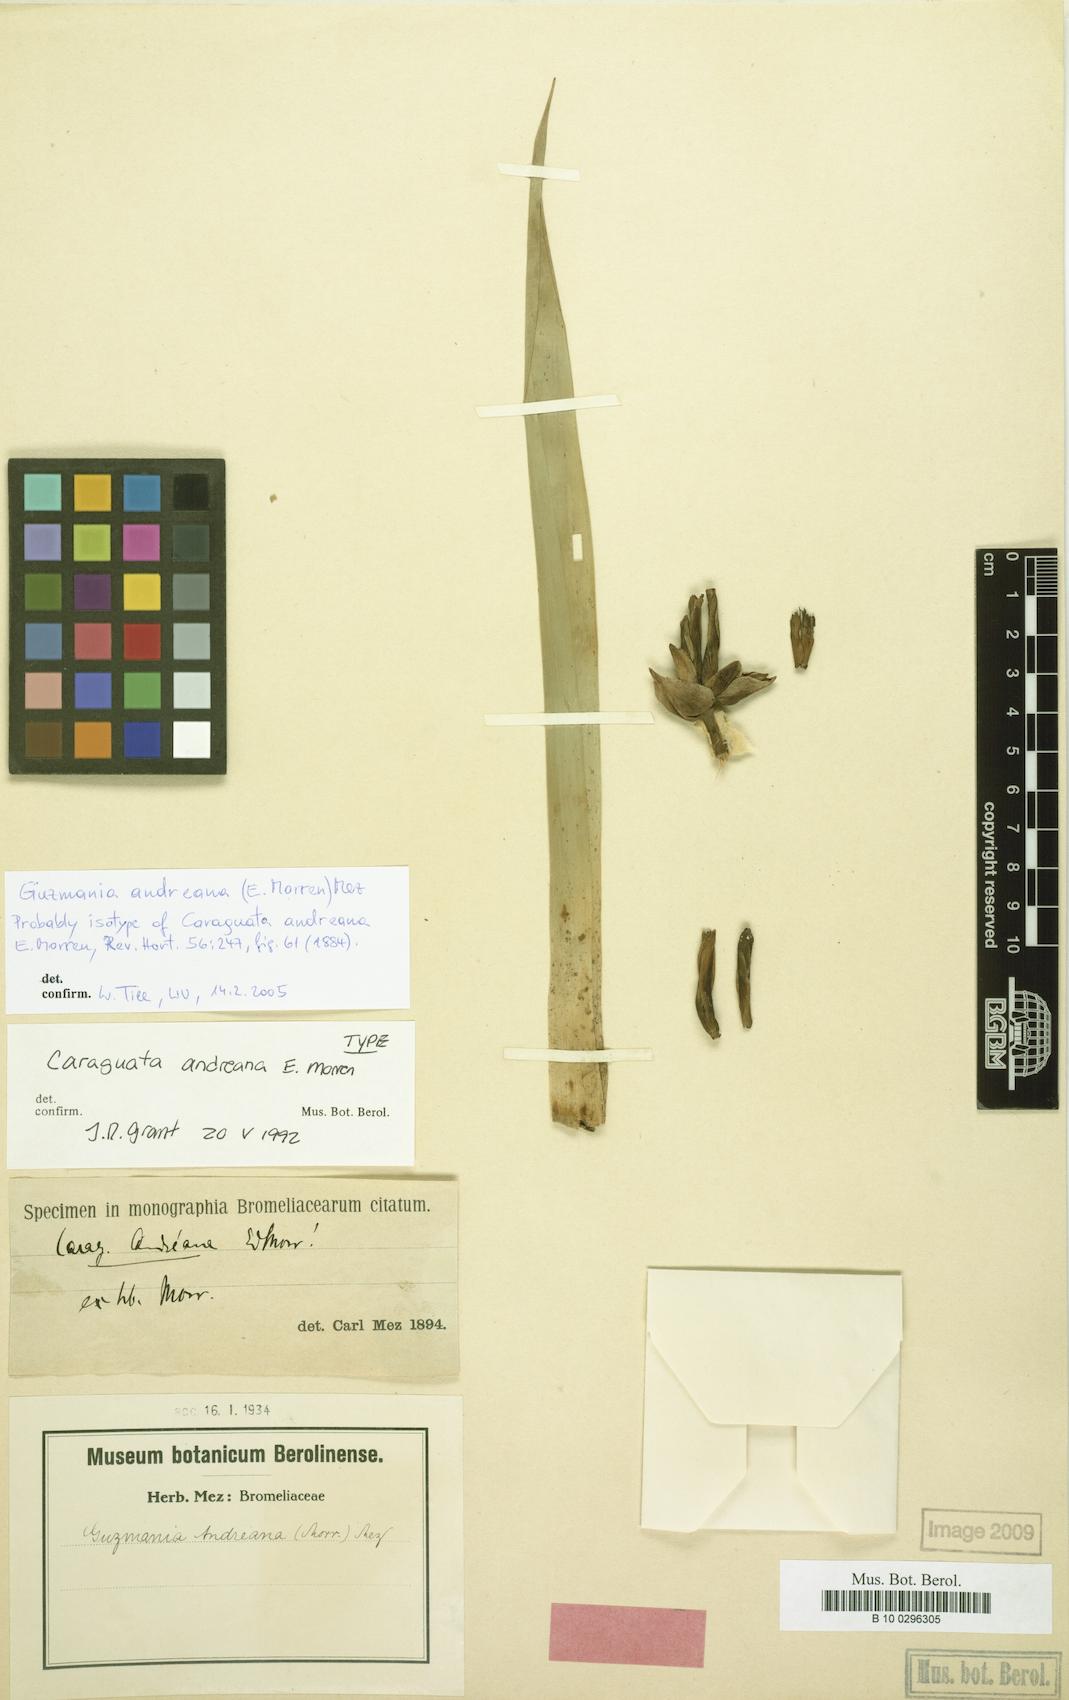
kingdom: Plantae
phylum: Tracheophyta
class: Liliopsida
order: Poales
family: Bromeliaceae
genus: Guzmania
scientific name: Guzmania andreana
